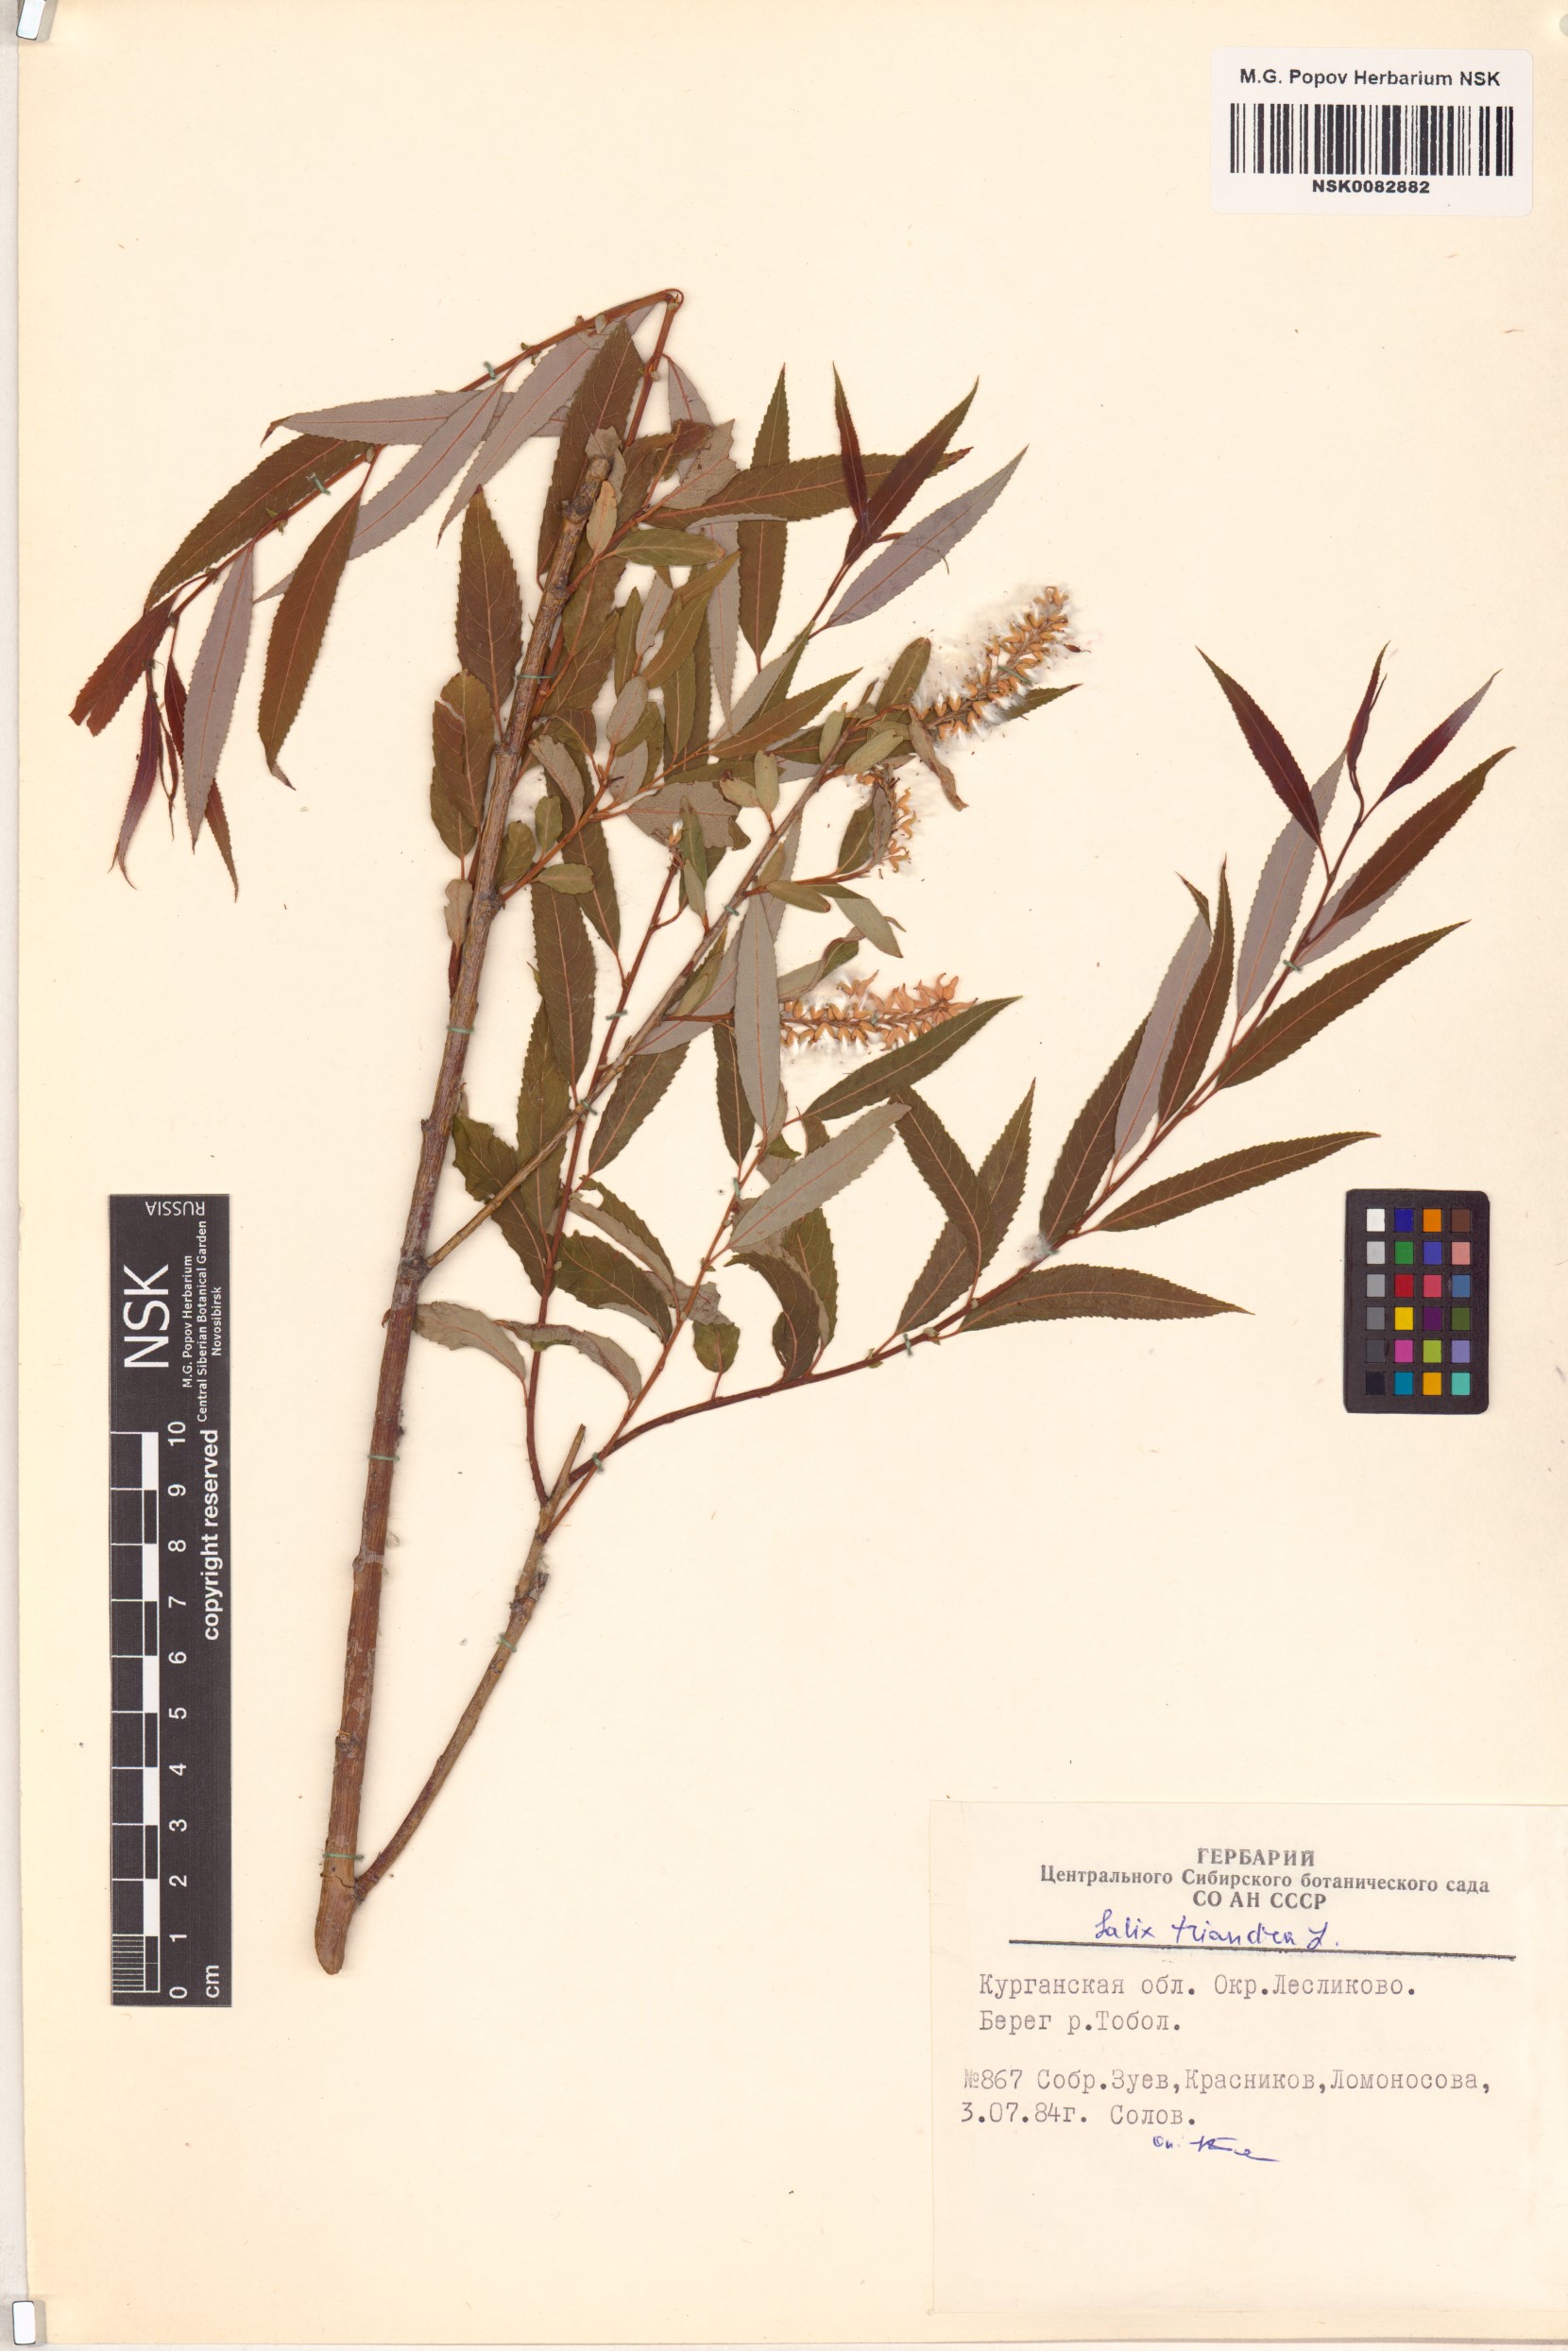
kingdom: Plantae
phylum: Tracheophyta
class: Magnoliopsida
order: Malpighiales
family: Salicaceae
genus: Salix
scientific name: Salix triandra
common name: Almond willow
